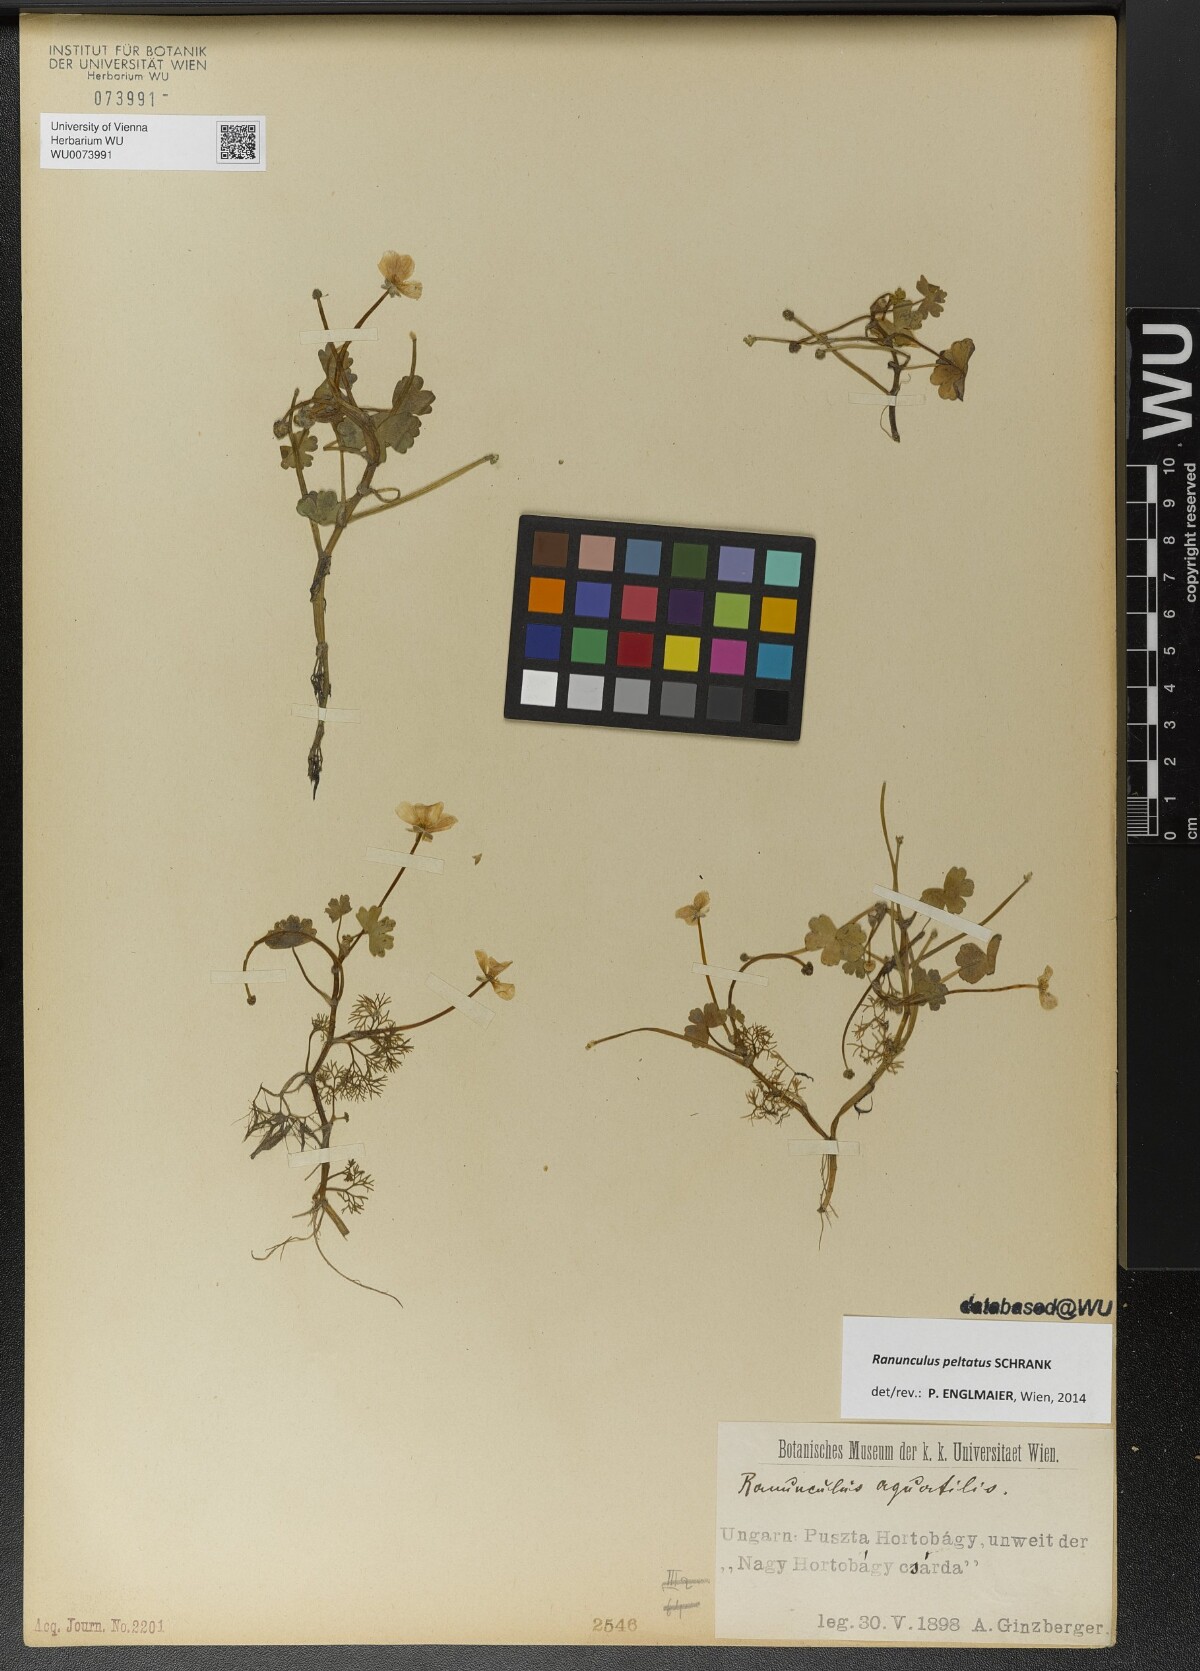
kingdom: Plantae
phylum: Tracheophyta
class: Magnoliopsida
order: Ranunculales
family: Ranunculaceae
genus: Ranunculus
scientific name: Ranunculus peltatus
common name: Pond water-crowfoot
